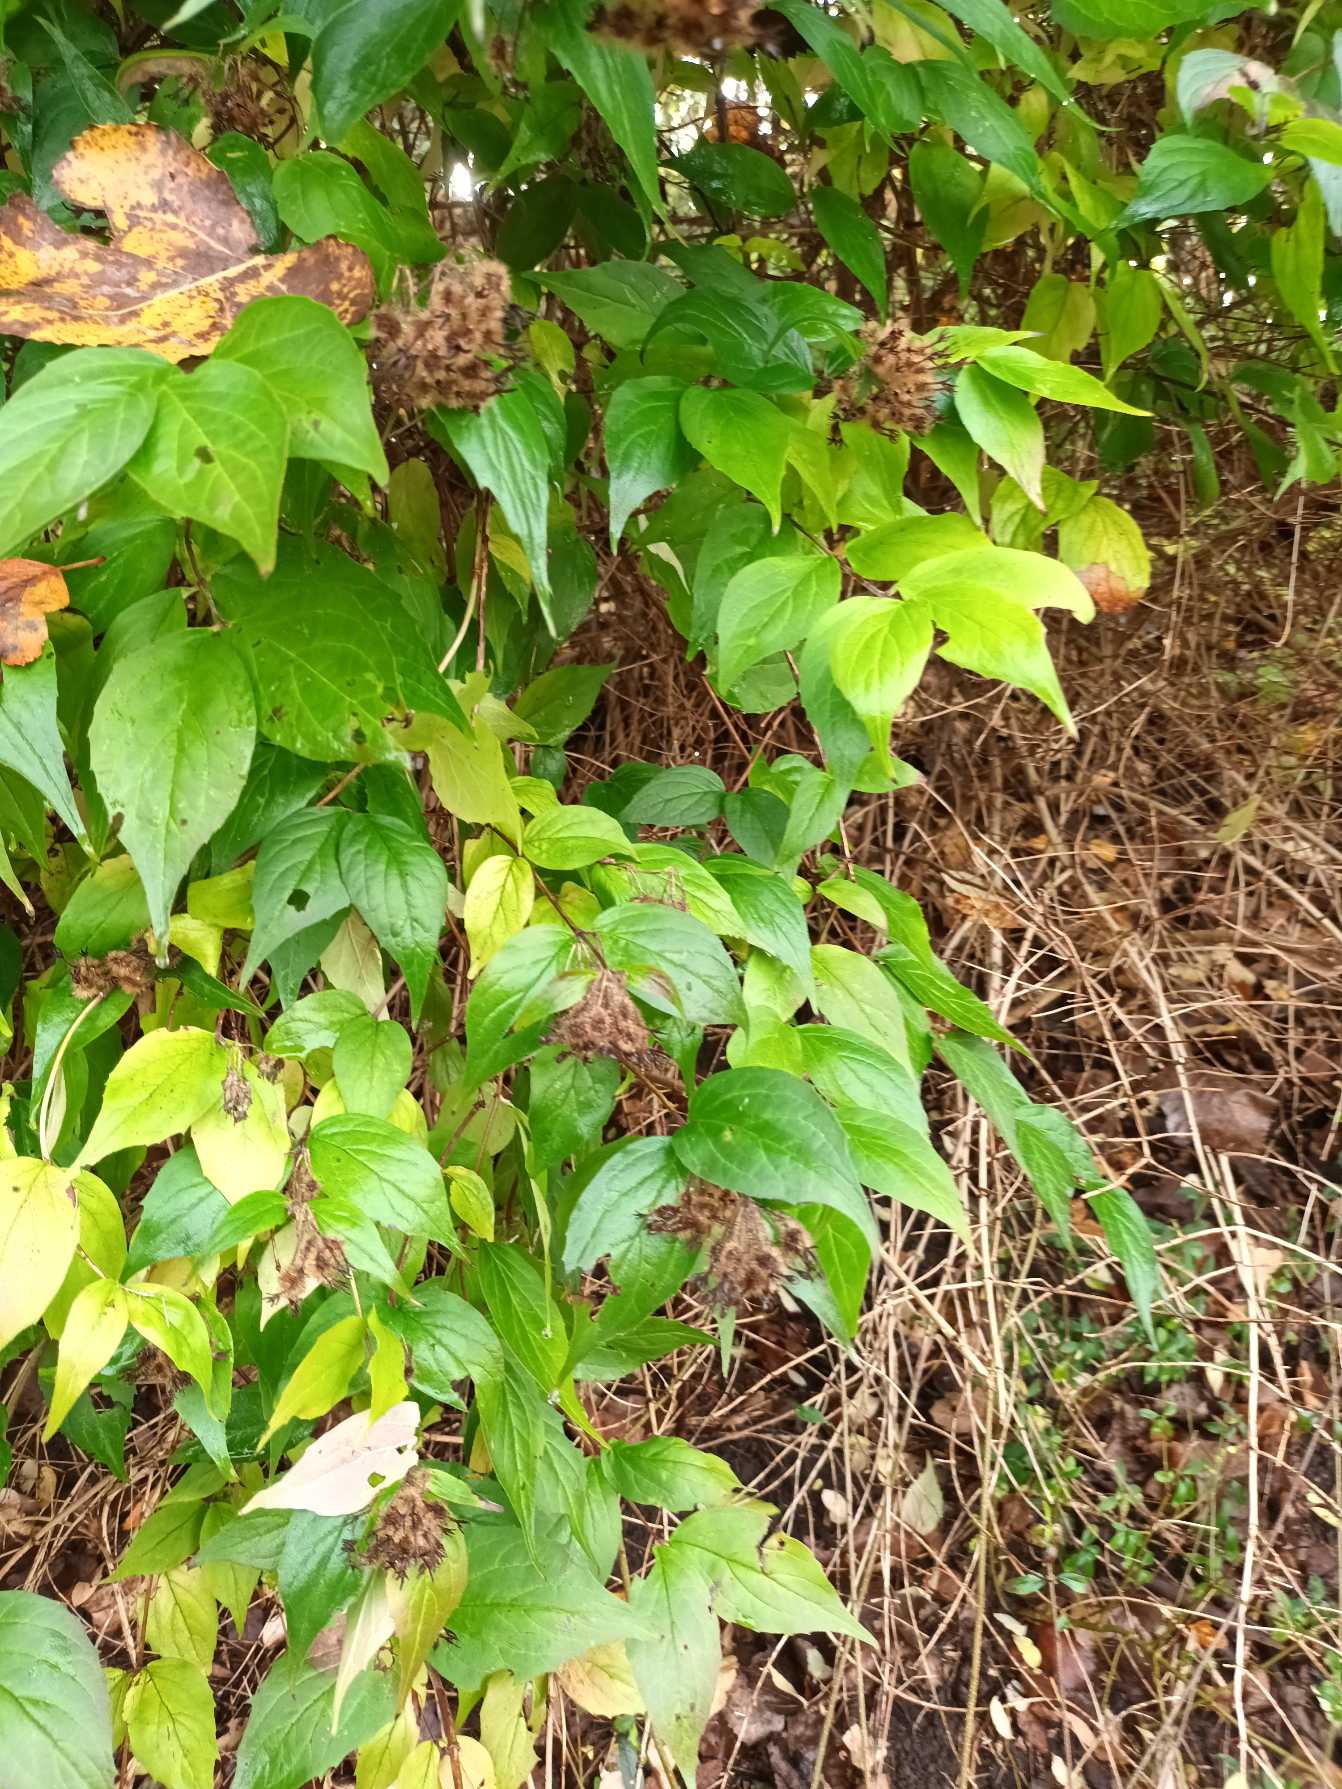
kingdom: Plantae
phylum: Tracheophyta
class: Magnoliopsida
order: Dipsacales
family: Caprifoliaceae
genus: Kolkwitzia
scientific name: Kolkwitzia amabilis
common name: Dronningebusk
